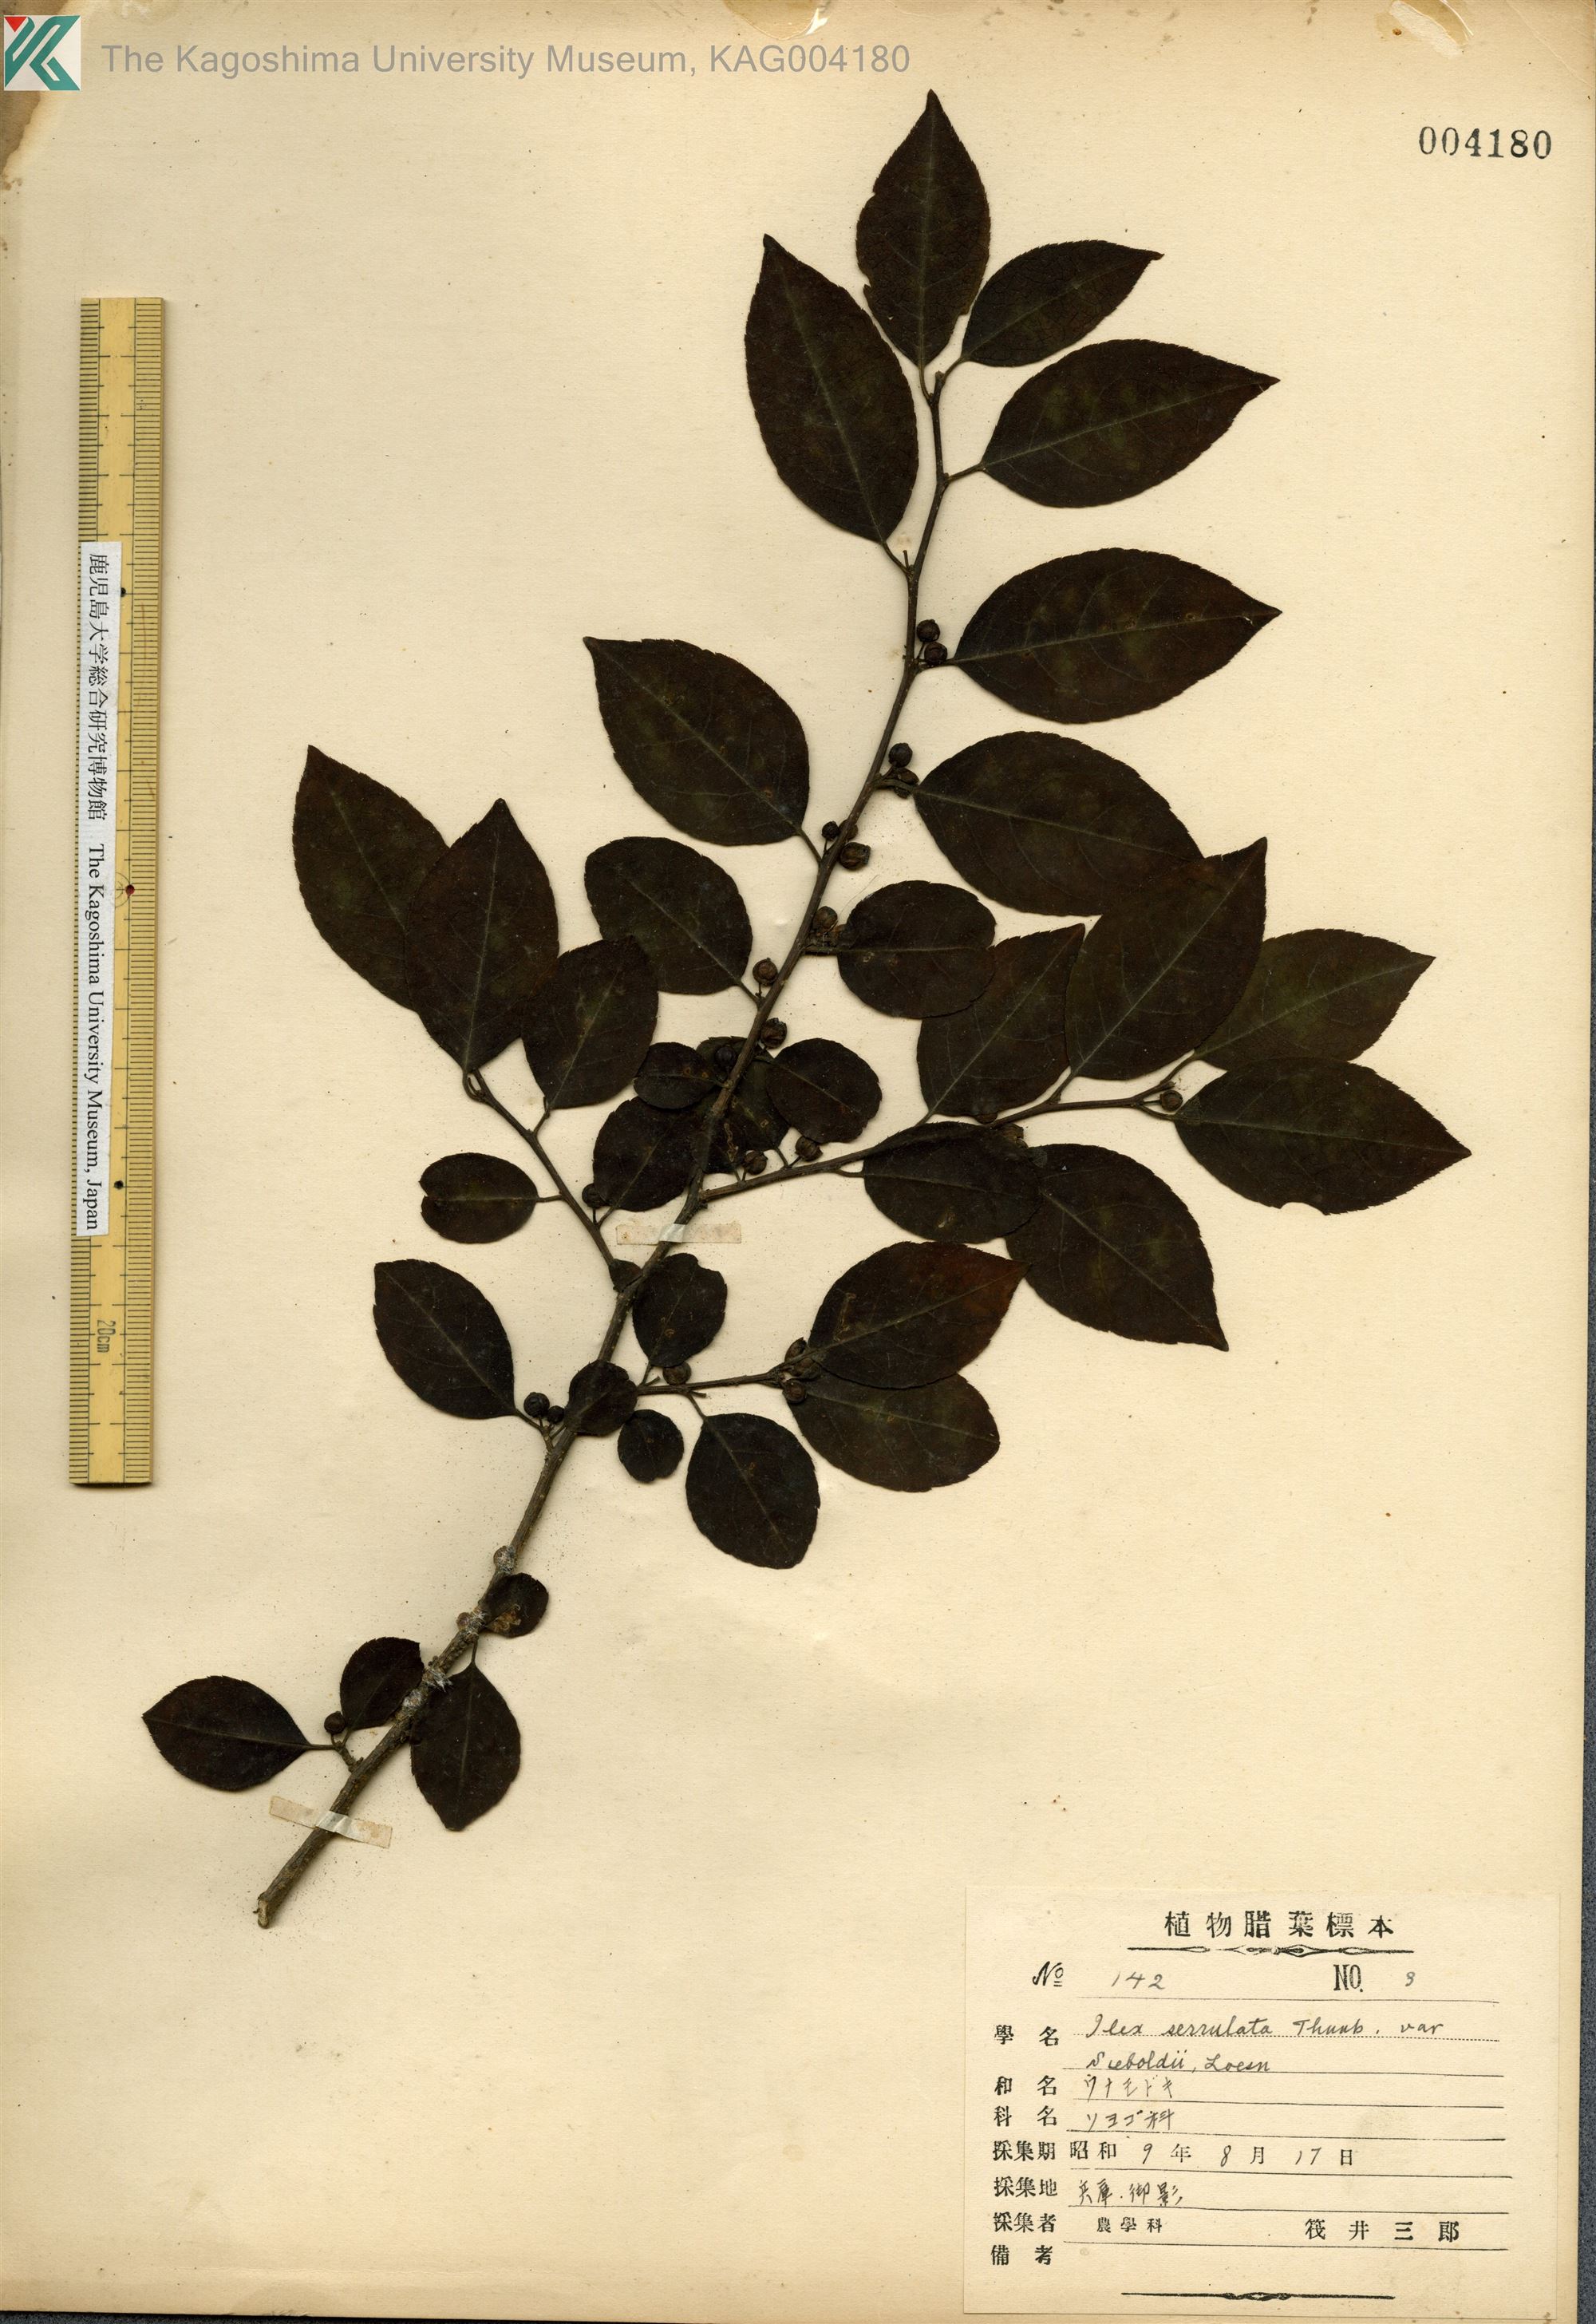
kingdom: Plantae
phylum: Tracheophyta
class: Magnoliopsida
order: Aquifoliales
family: Aquifoliaceae
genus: Ilex
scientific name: Ilex serrata
